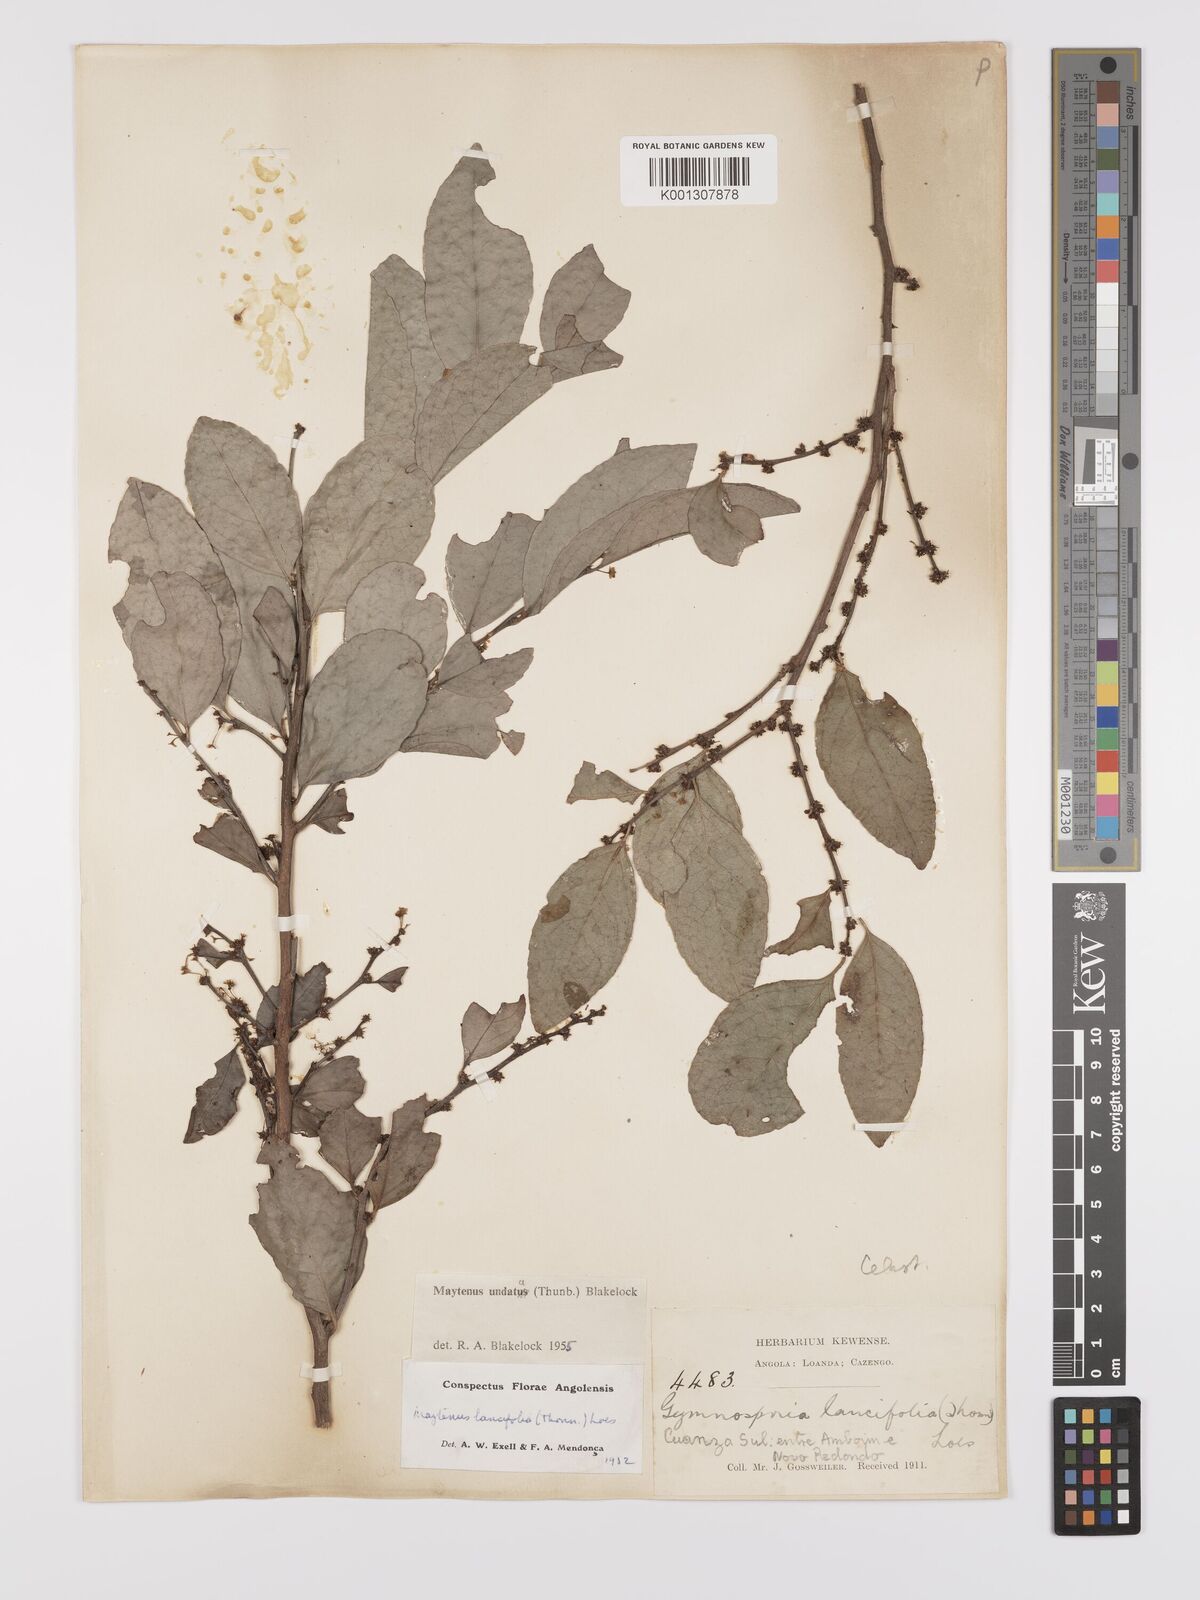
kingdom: Plantae
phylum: Tracheophyta
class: Magnoliopsida
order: Celastrales
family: Celastraceae
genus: Gymnosporia
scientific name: Gymnosporia undata
